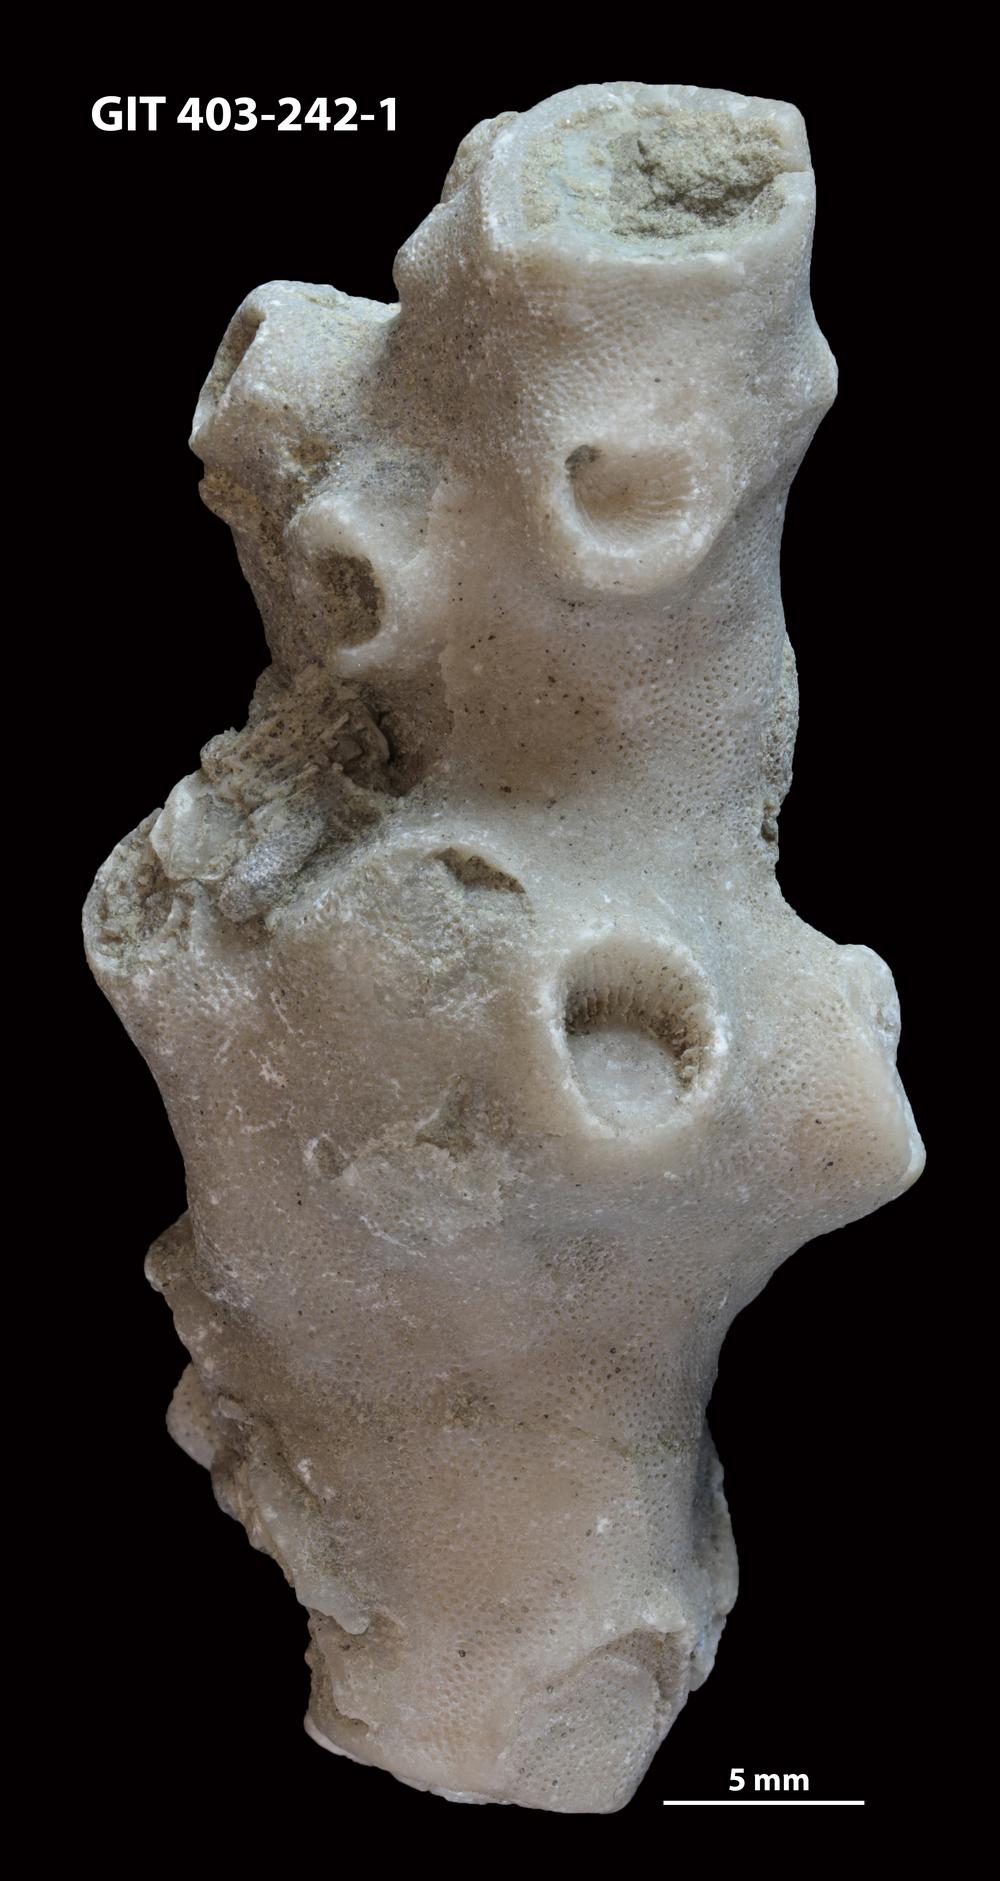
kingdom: Animalia
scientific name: Animalia
